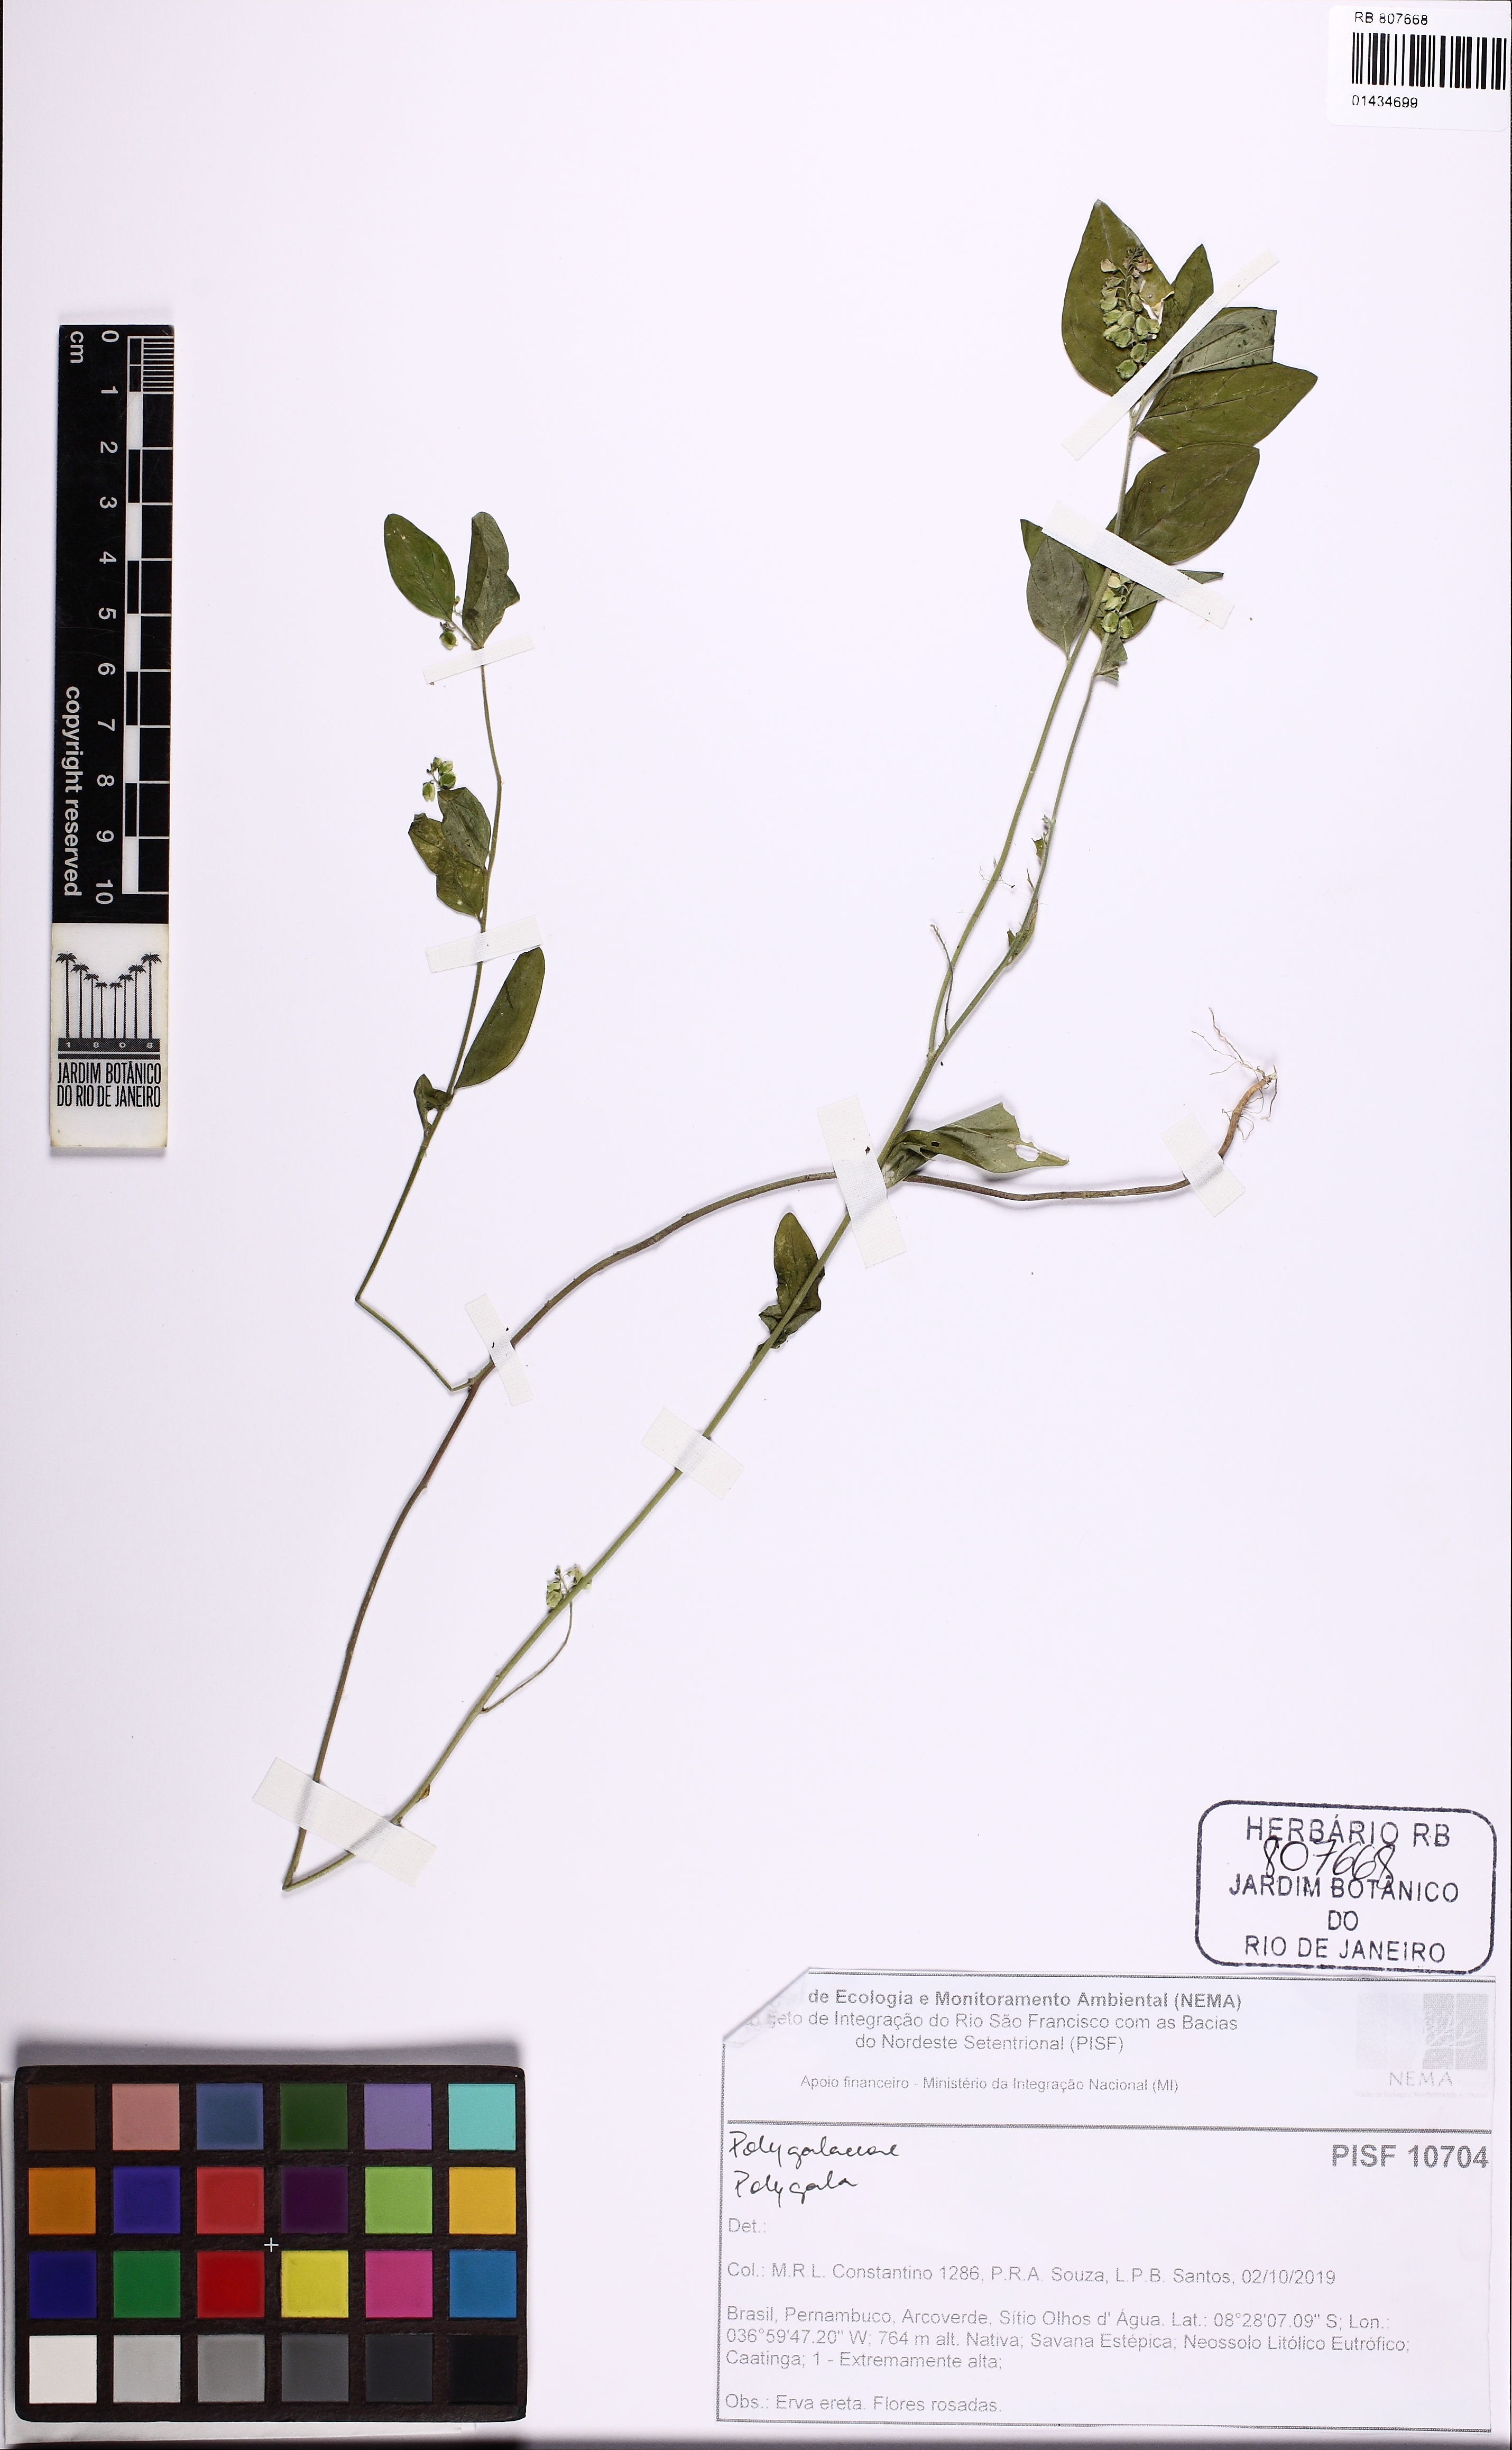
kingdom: Plantae
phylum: Tracheophyta
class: Magnoliopsida
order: Fabales
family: Polygalaceae
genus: Polygala
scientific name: Polygala
